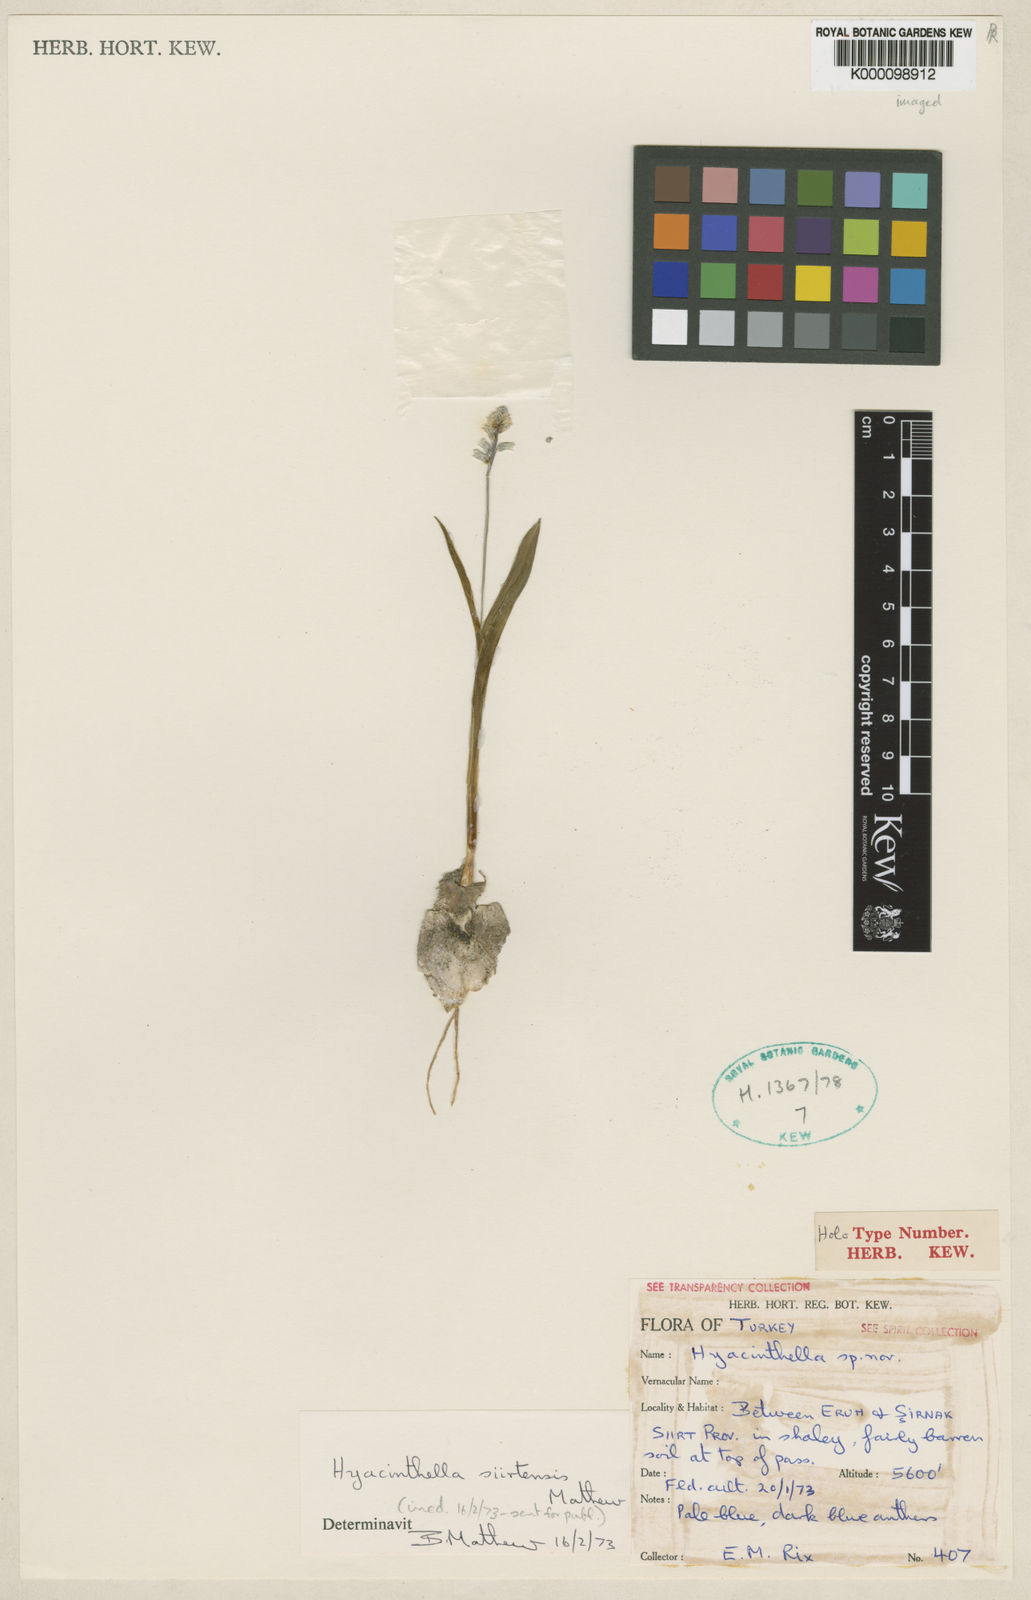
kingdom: Plantae
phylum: Tracheophyta
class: Liliopsida
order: Asparagales
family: Asparagaceae
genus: Hyacinthella
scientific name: Hyacinthella siirtensis
